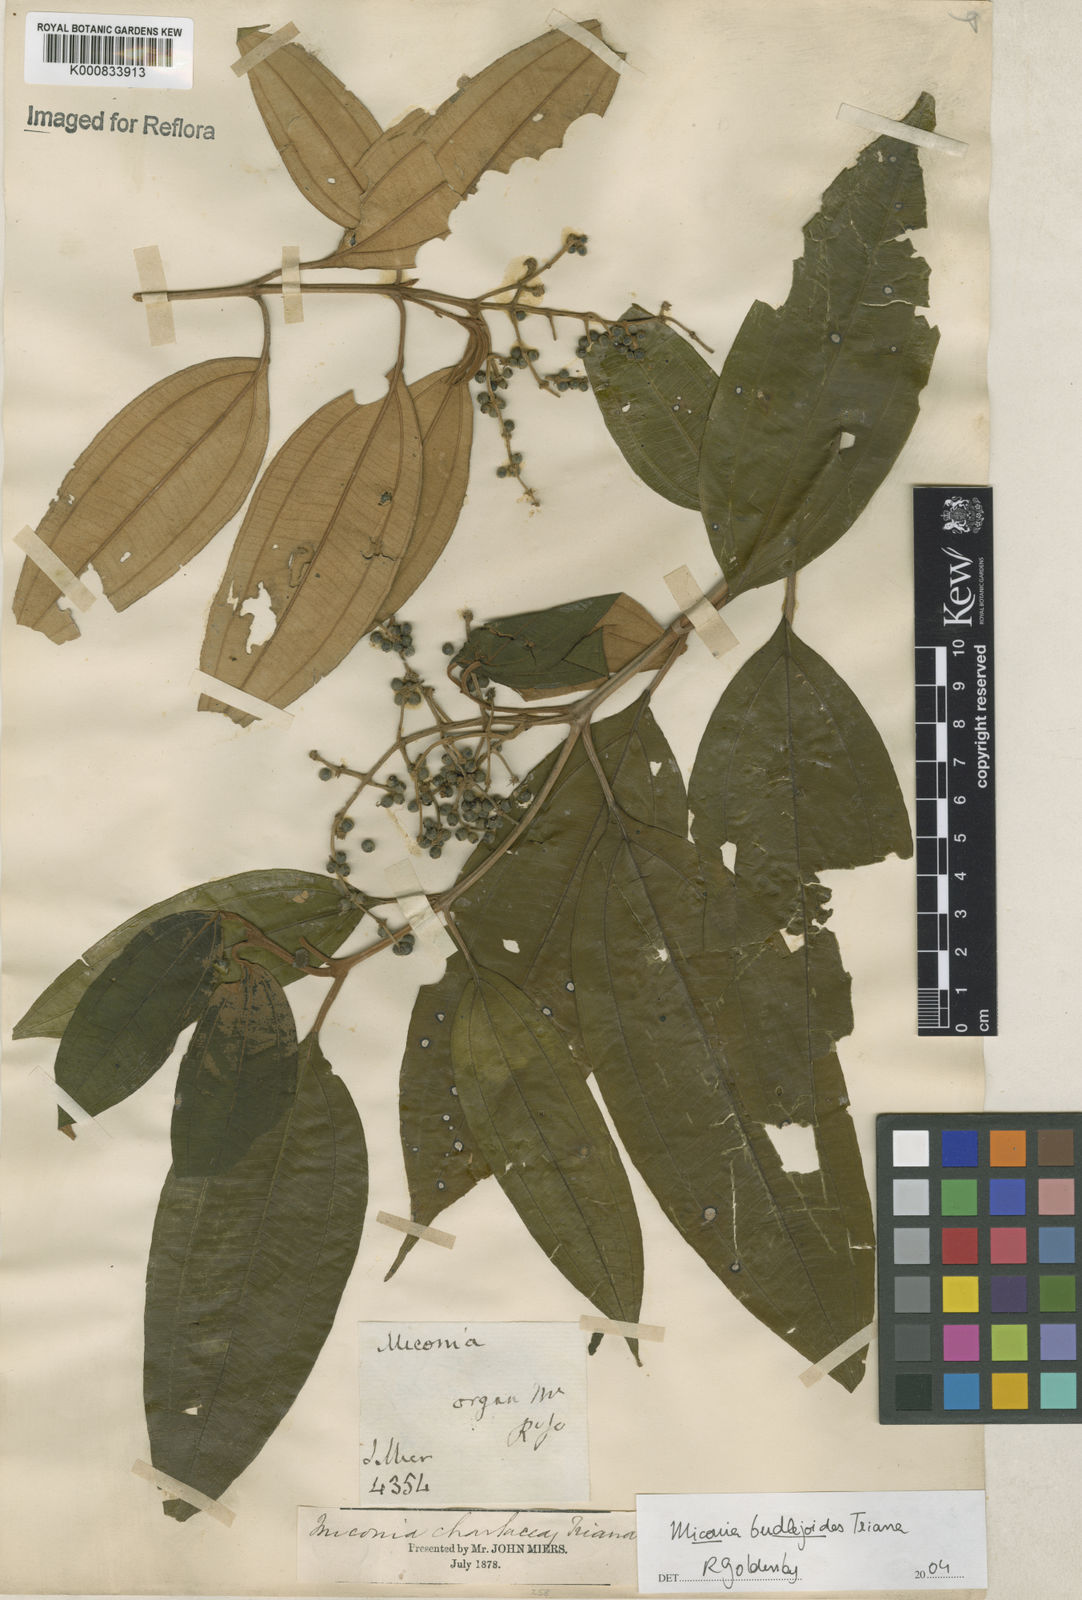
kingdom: Plantae
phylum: Tracheophyta
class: Magnoliopsida
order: Myrtales
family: Melastomataceae
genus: Miconia
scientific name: Miconia buddlejoides
